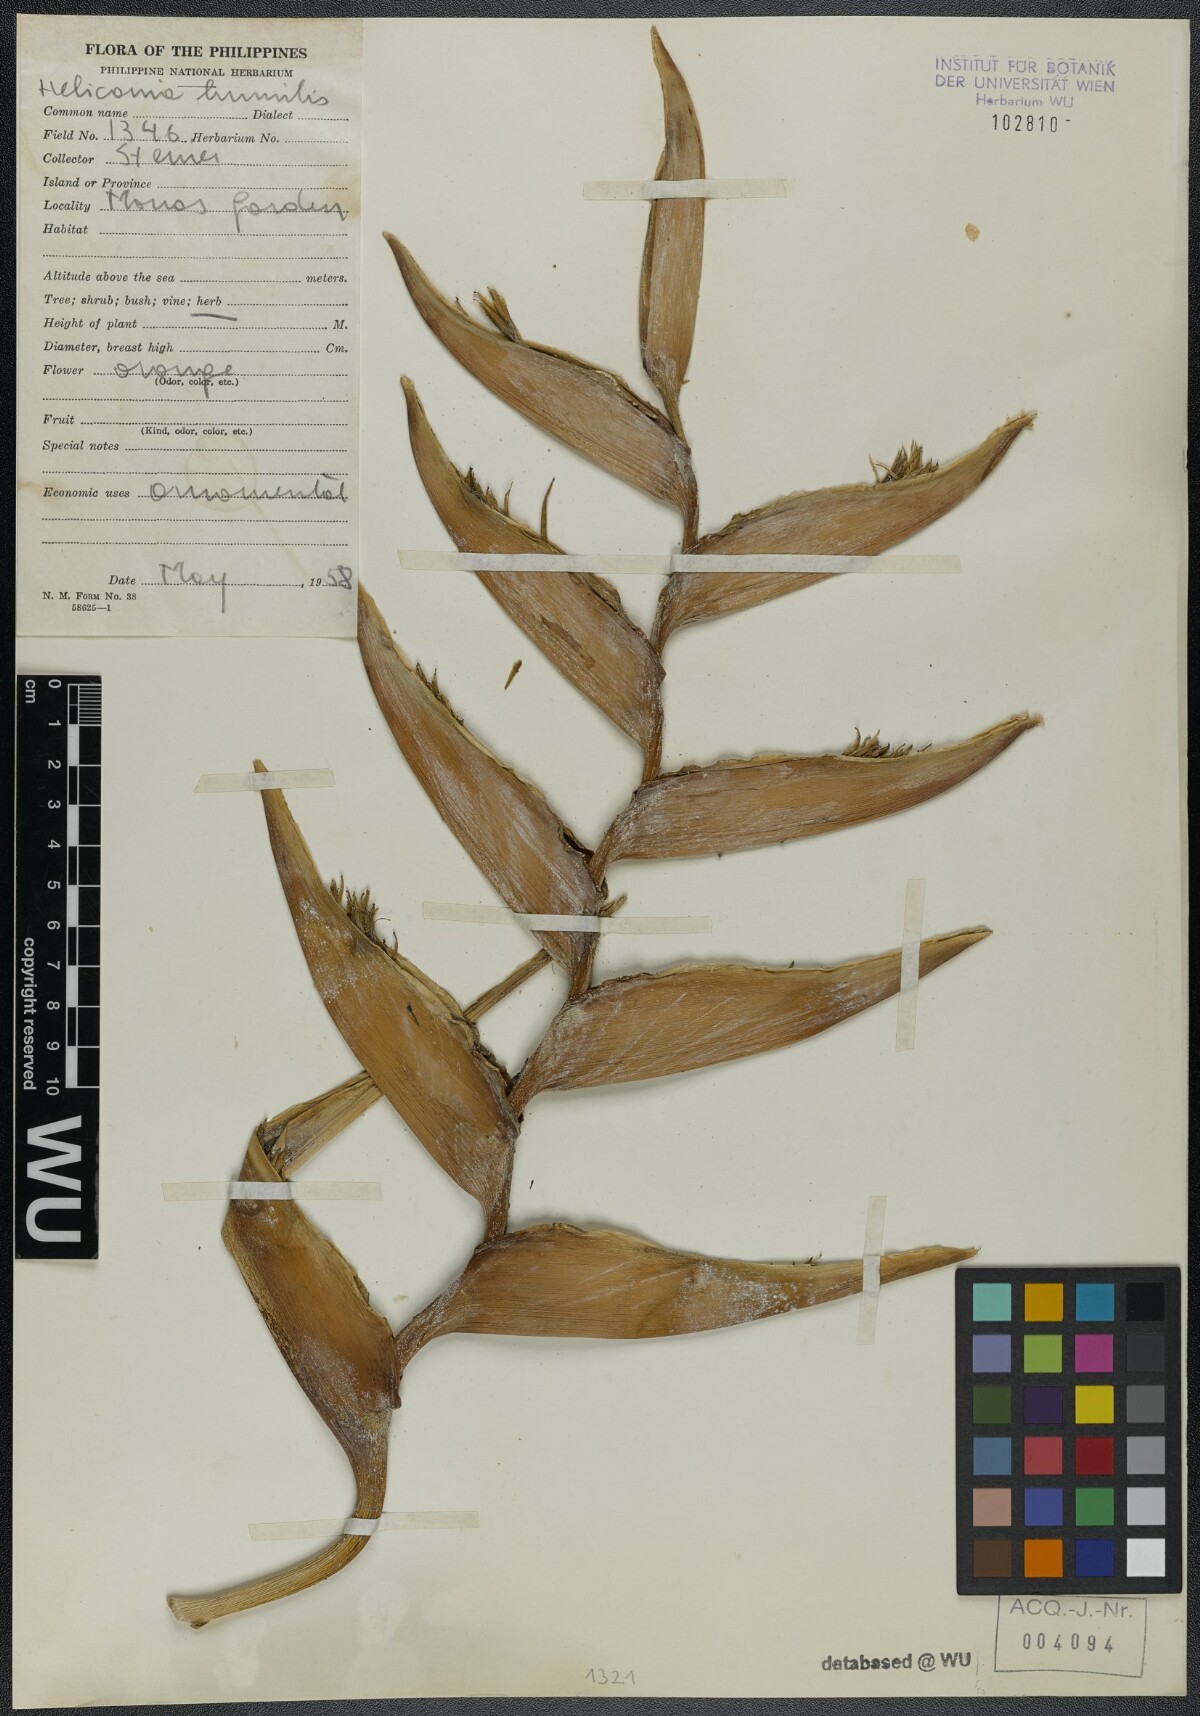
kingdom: Plantae
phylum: Tracheophyta
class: Liliopsida
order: Zingiberales
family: Heliconiaceae
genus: Heliconia
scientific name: Heliconia psittacorum
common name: Parrot's-flower
